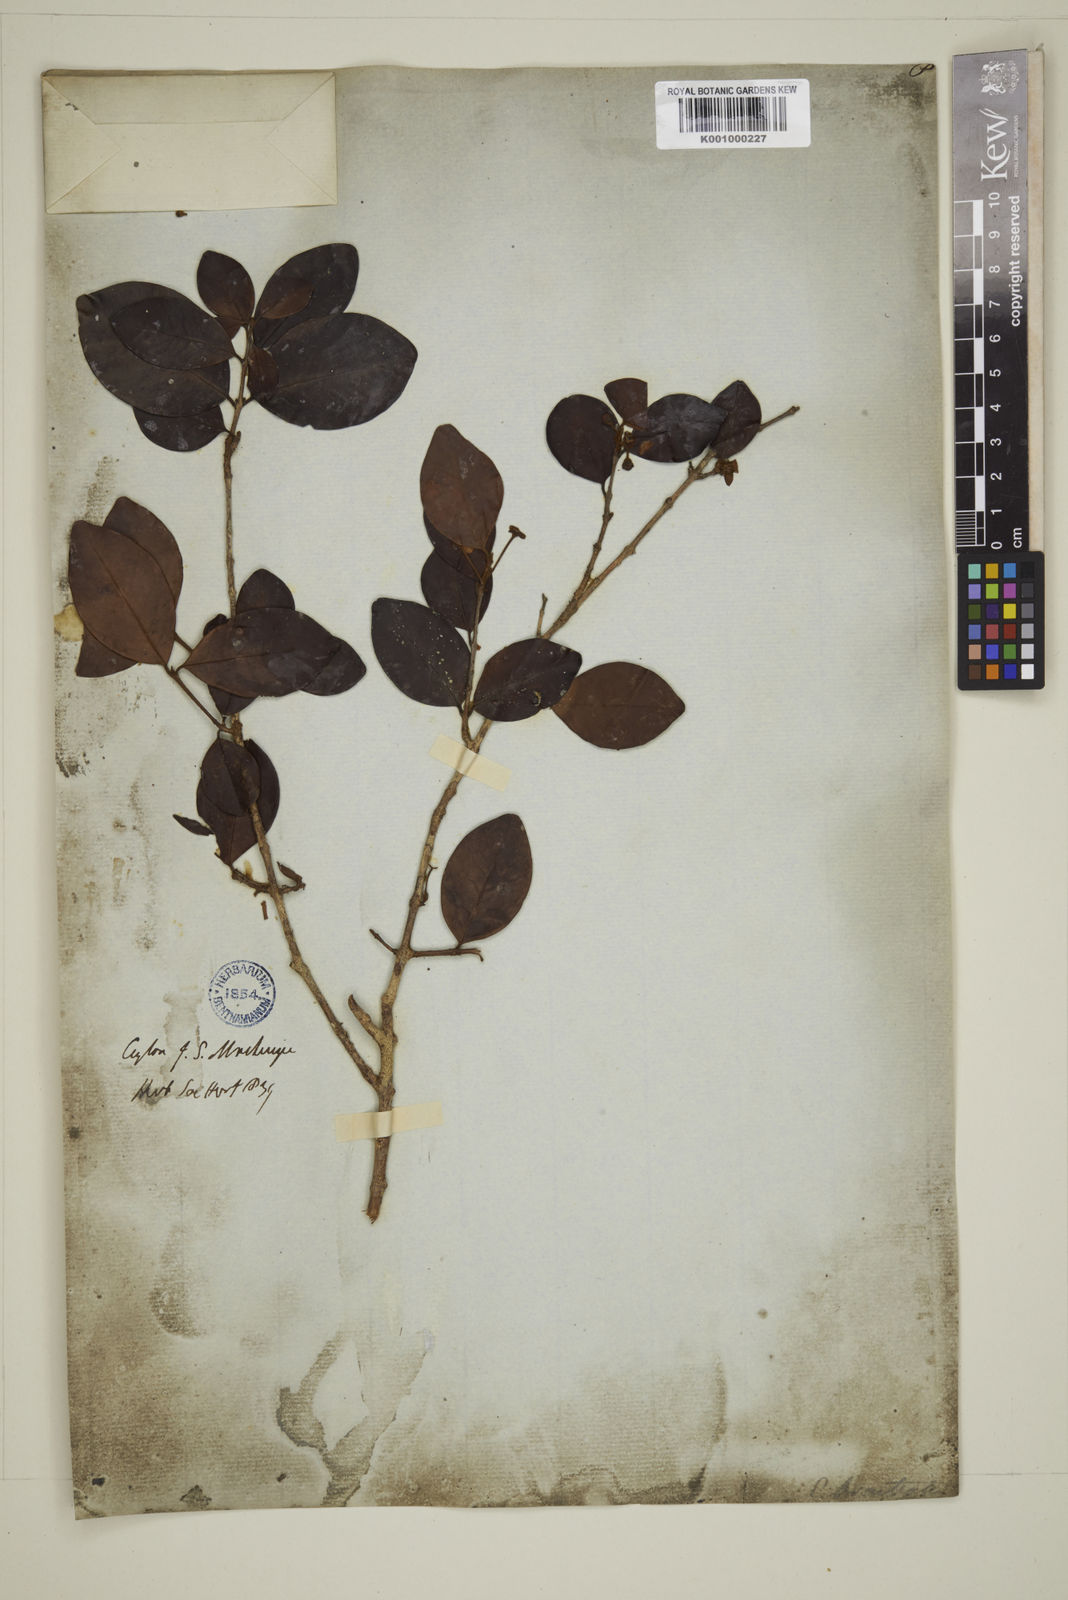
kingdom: Plantae
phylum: Tracheophyta
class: Magnoliopsida
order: Myrtales
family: Myrtaceae
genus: Eugenia
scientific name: Eugenia pseudopsidium
